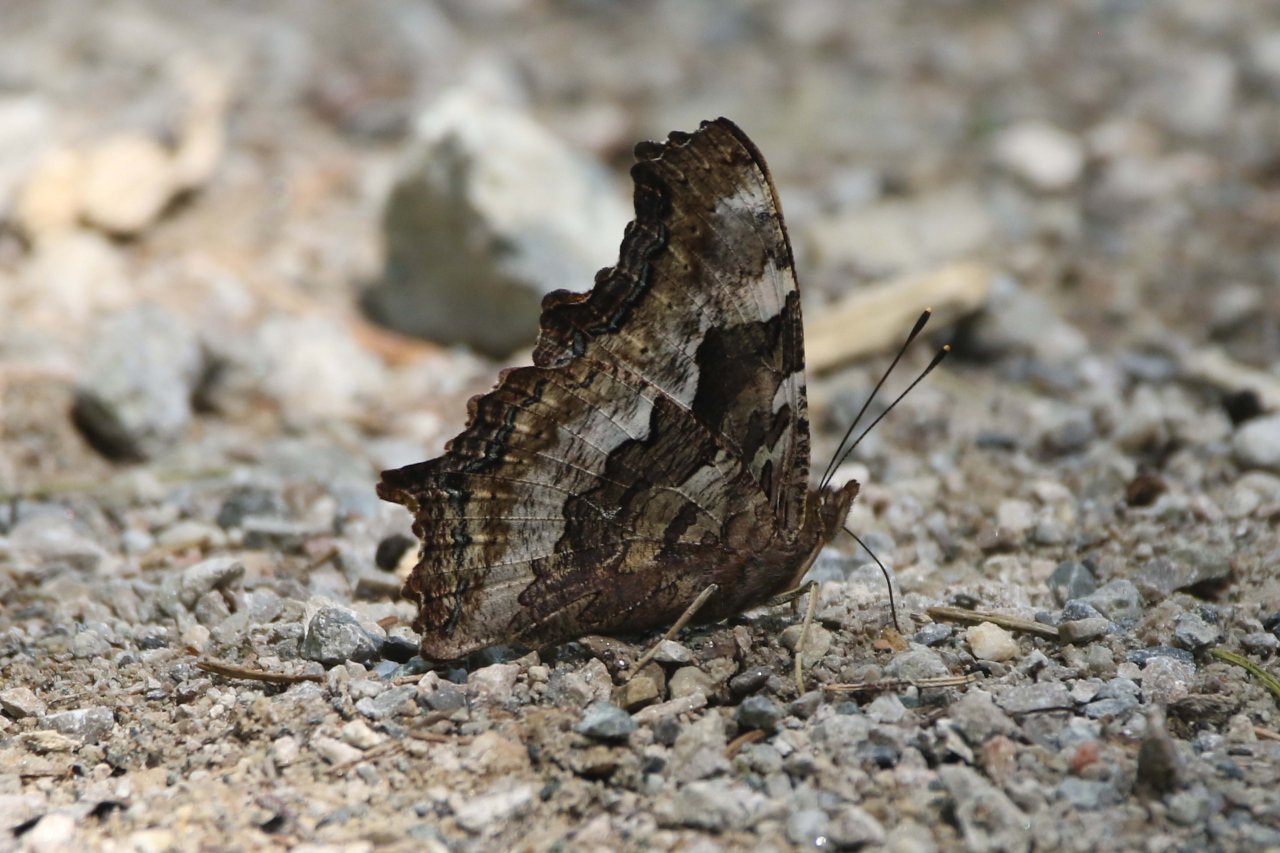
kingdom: Animalia
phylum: Arthropoda
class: Insecta
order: Lepidoptera
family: Nymphalidae
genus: Polygonia
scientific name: Polygonia vaualbum
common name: Compton Tortoiseshell
